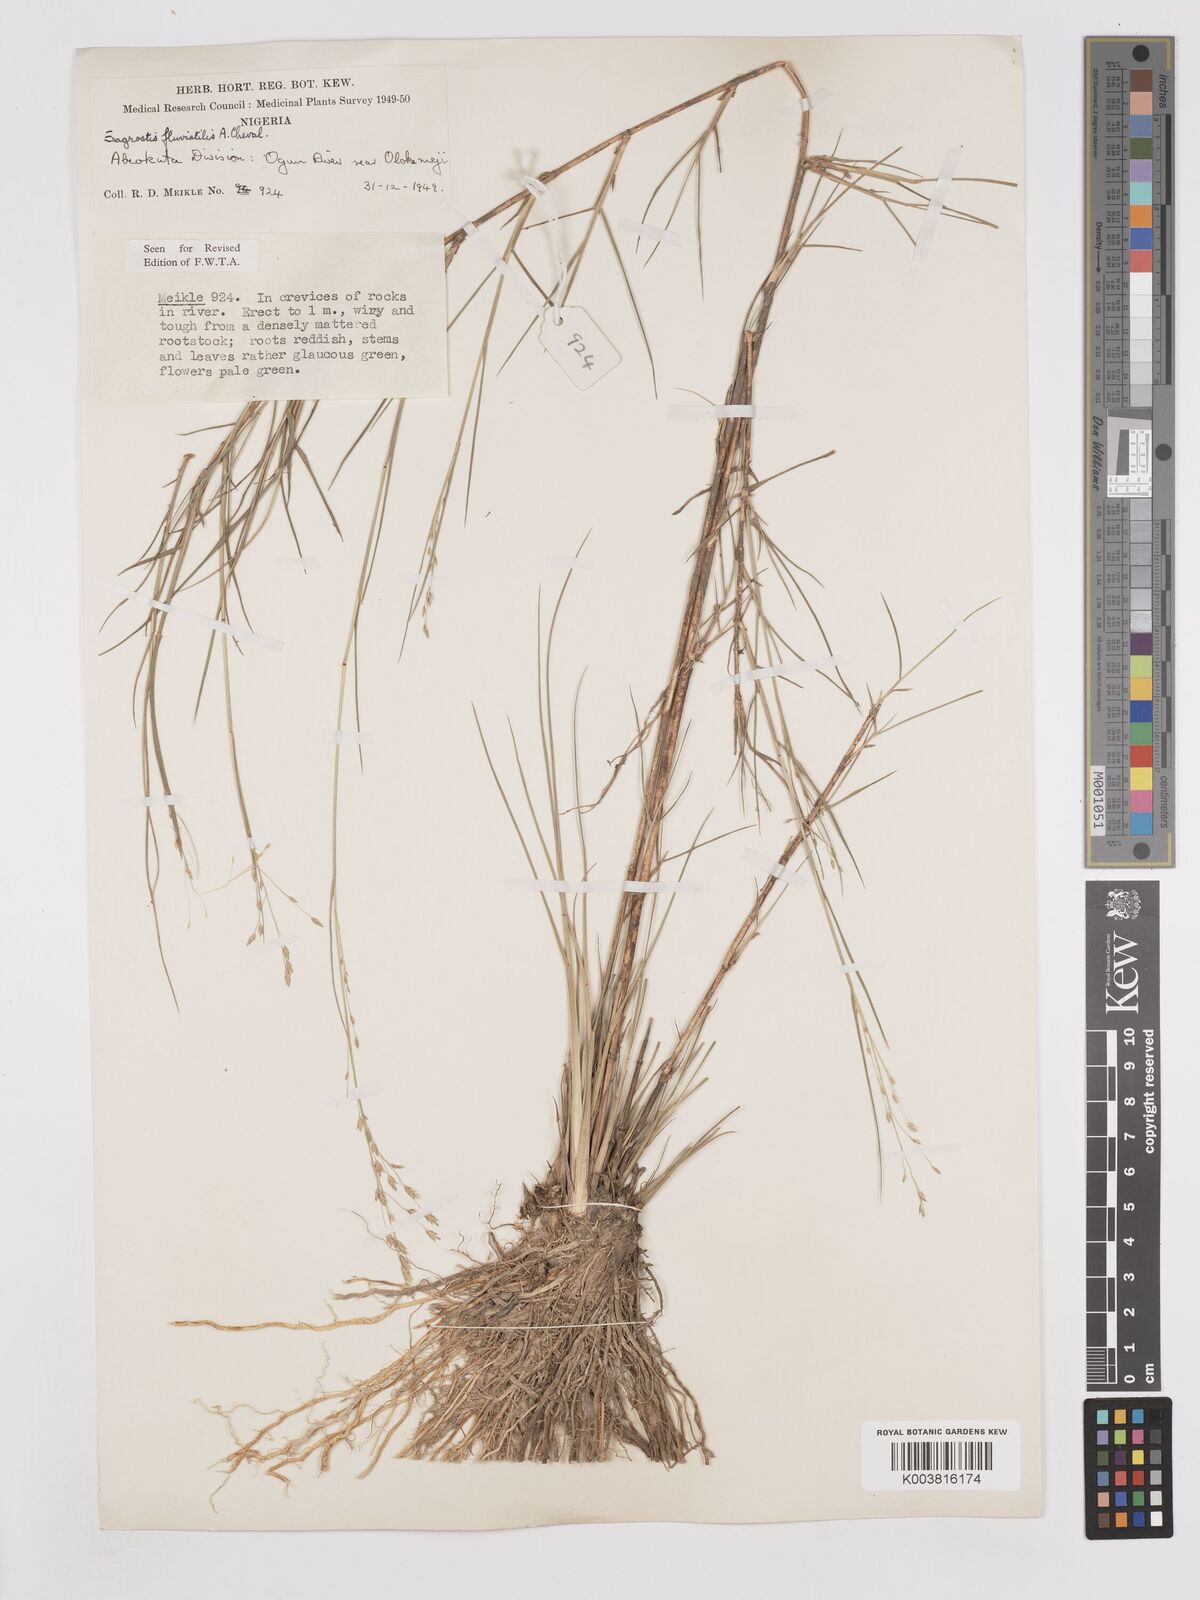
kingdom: Plantae
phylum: Tracheophyta
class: Liliopsida
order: Poales
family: Poaceae
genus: Eragrostis
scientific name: Eragrostis barteri
